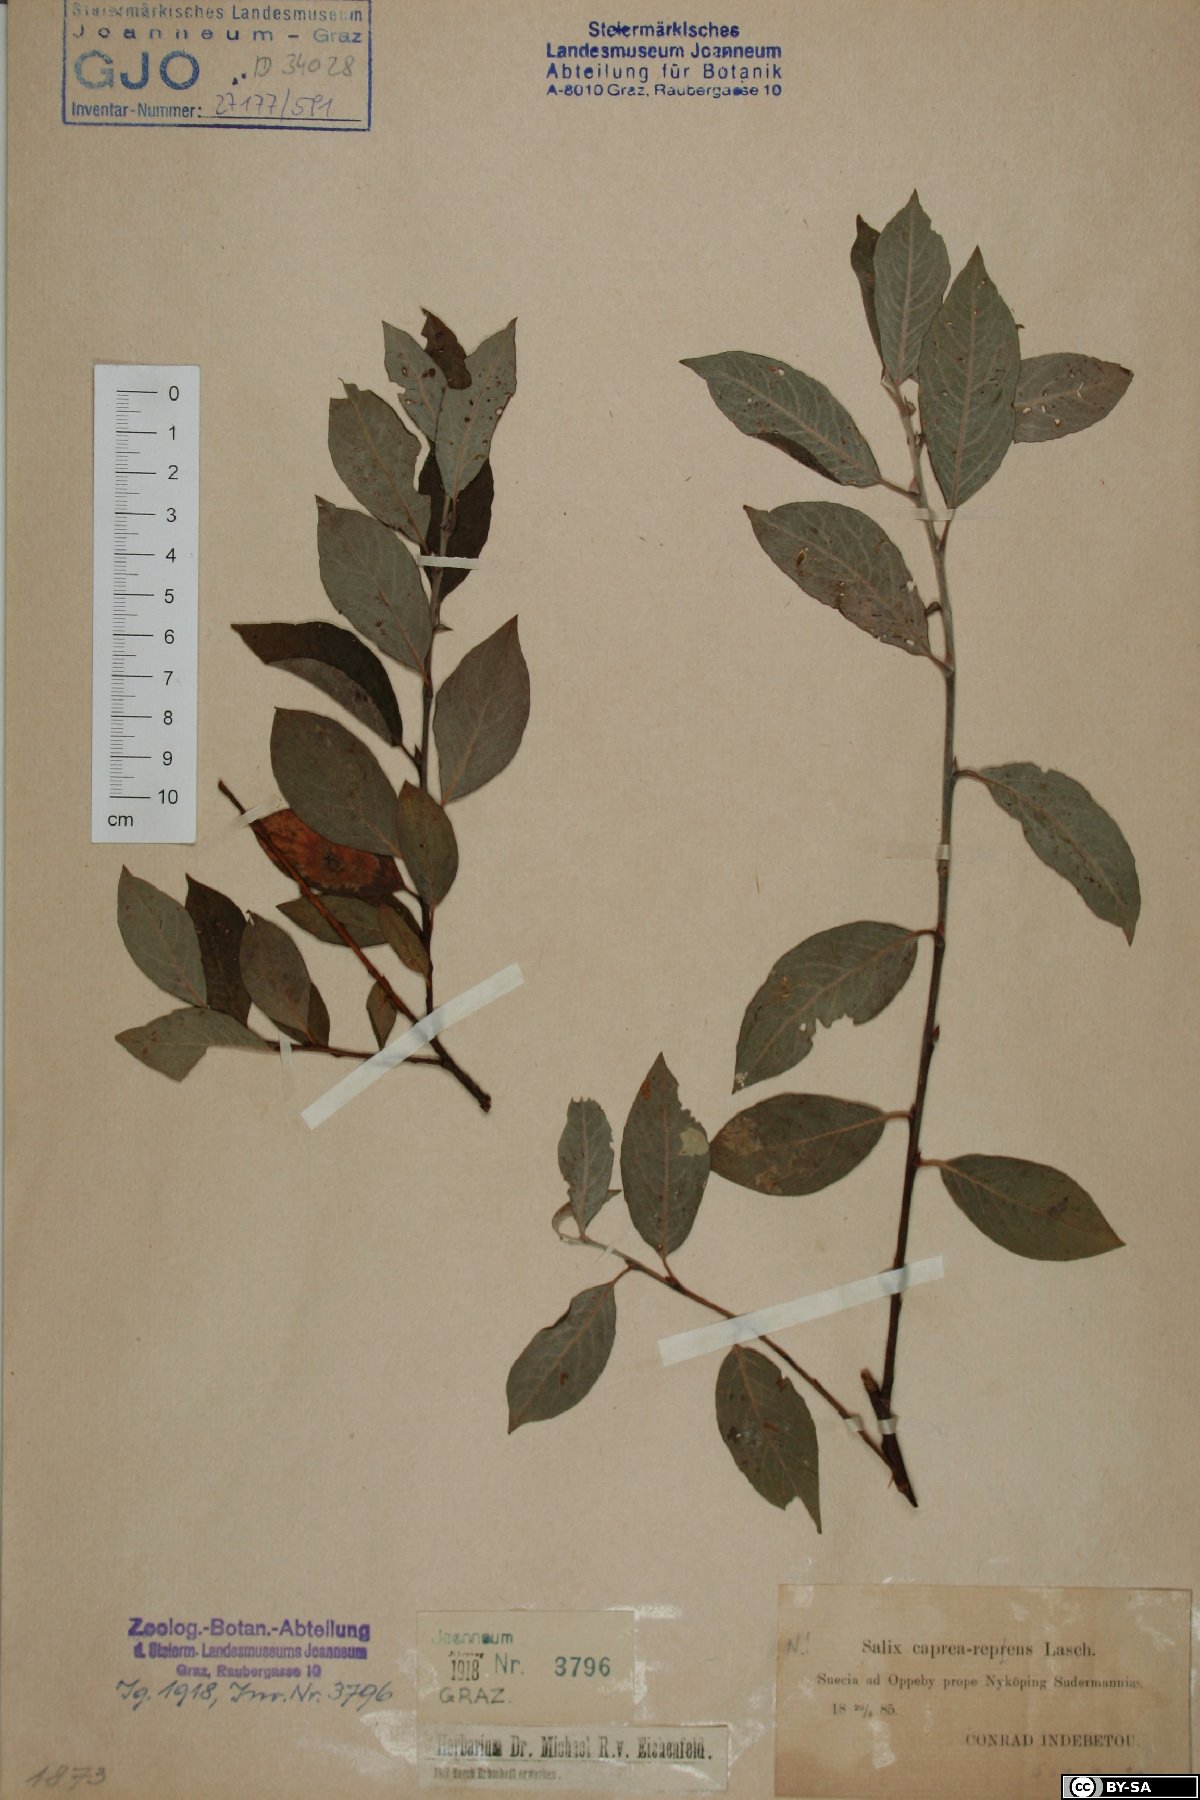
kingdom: Plantae
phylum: Tracheophyta
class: Magnoliopsida
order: Malpighiales
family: Salicaceae
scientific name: Salicaceae
